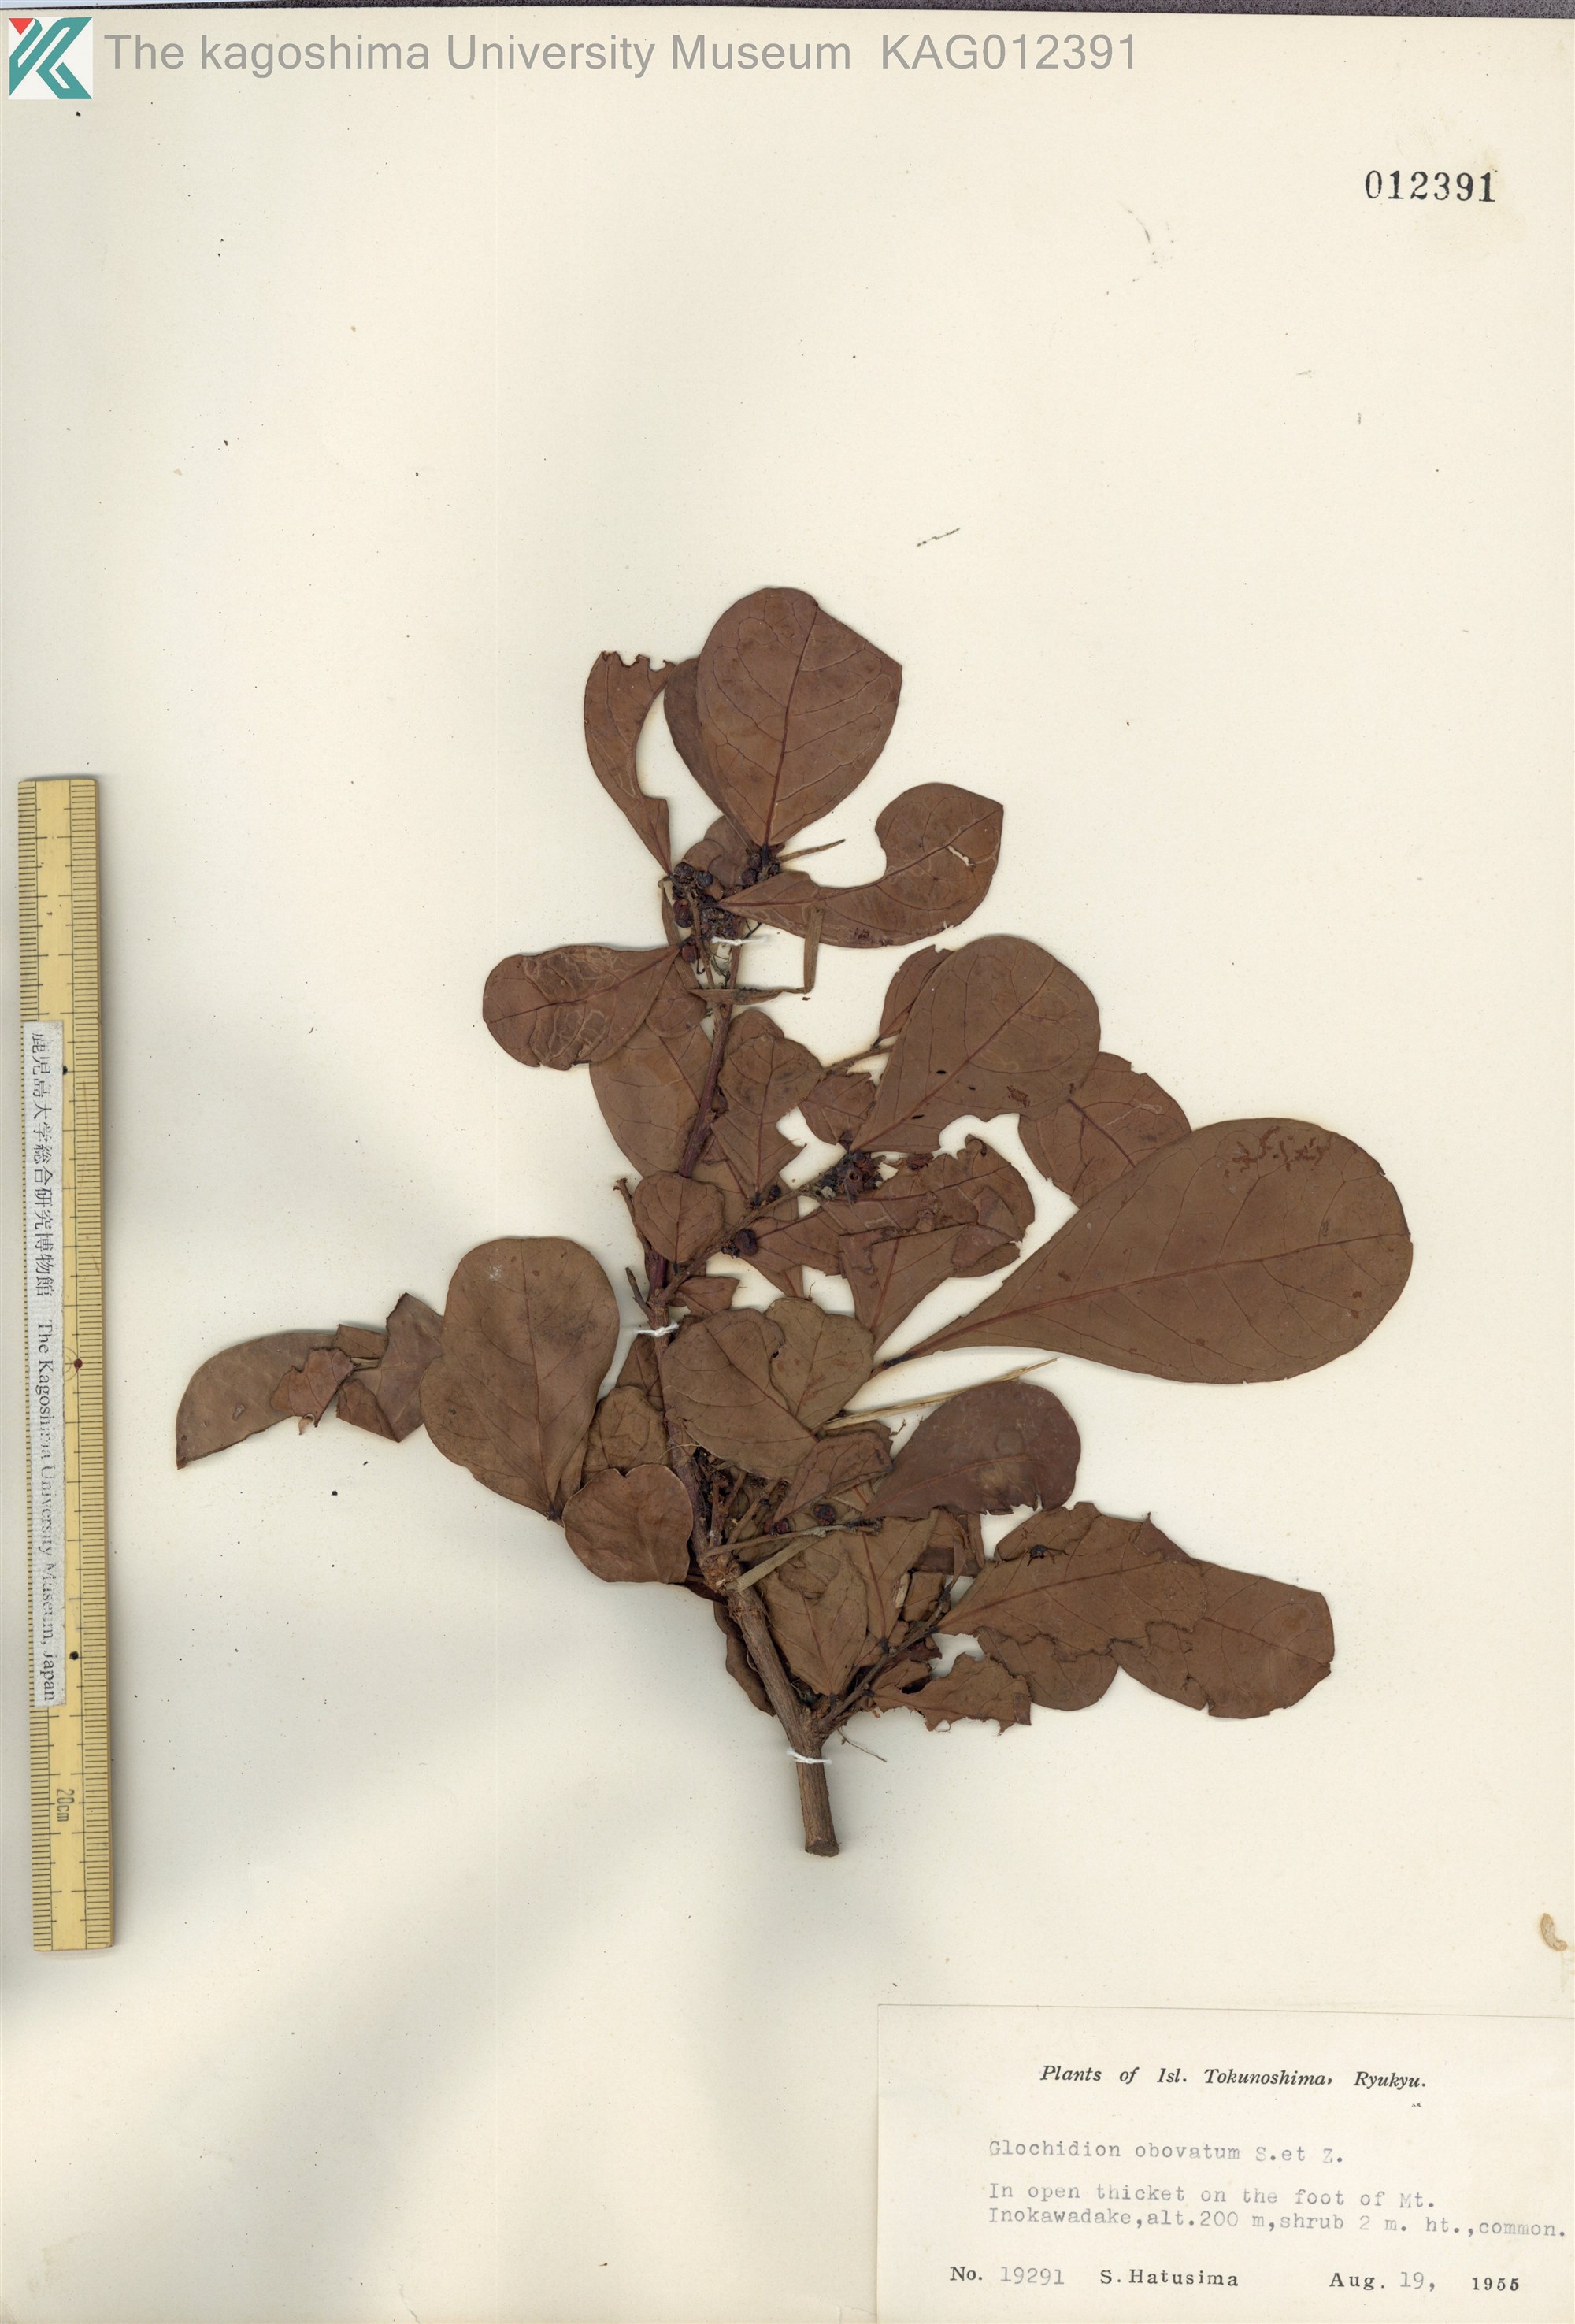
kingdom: Plantae
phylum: Tracheophyta
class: Magnoliopsida
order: Malpighiales
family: Phyllanthaceae
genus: Glochidion
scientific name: Glochidion obovatum
